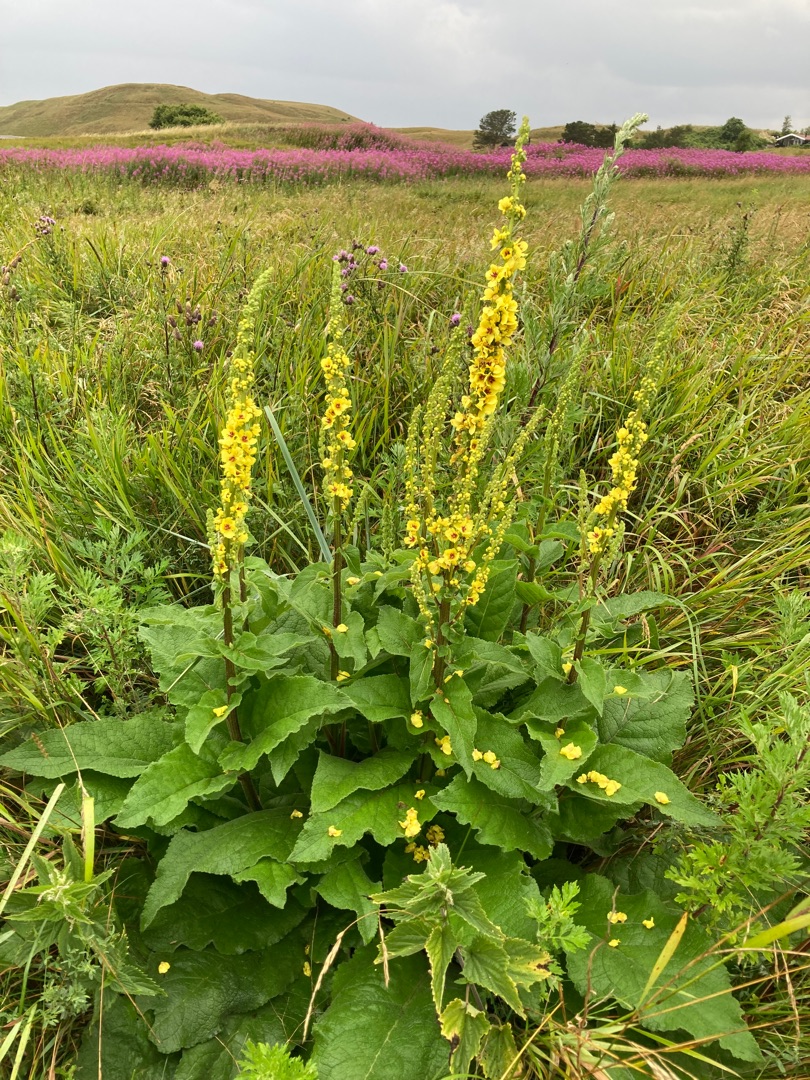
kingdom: Plantae
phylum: Tracheophyta
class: Magnoliopsida
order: Lamiales
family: Scrophulariaceae
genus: Verbascum
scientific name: Verbascum nigrum
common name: Mørk kongelys
